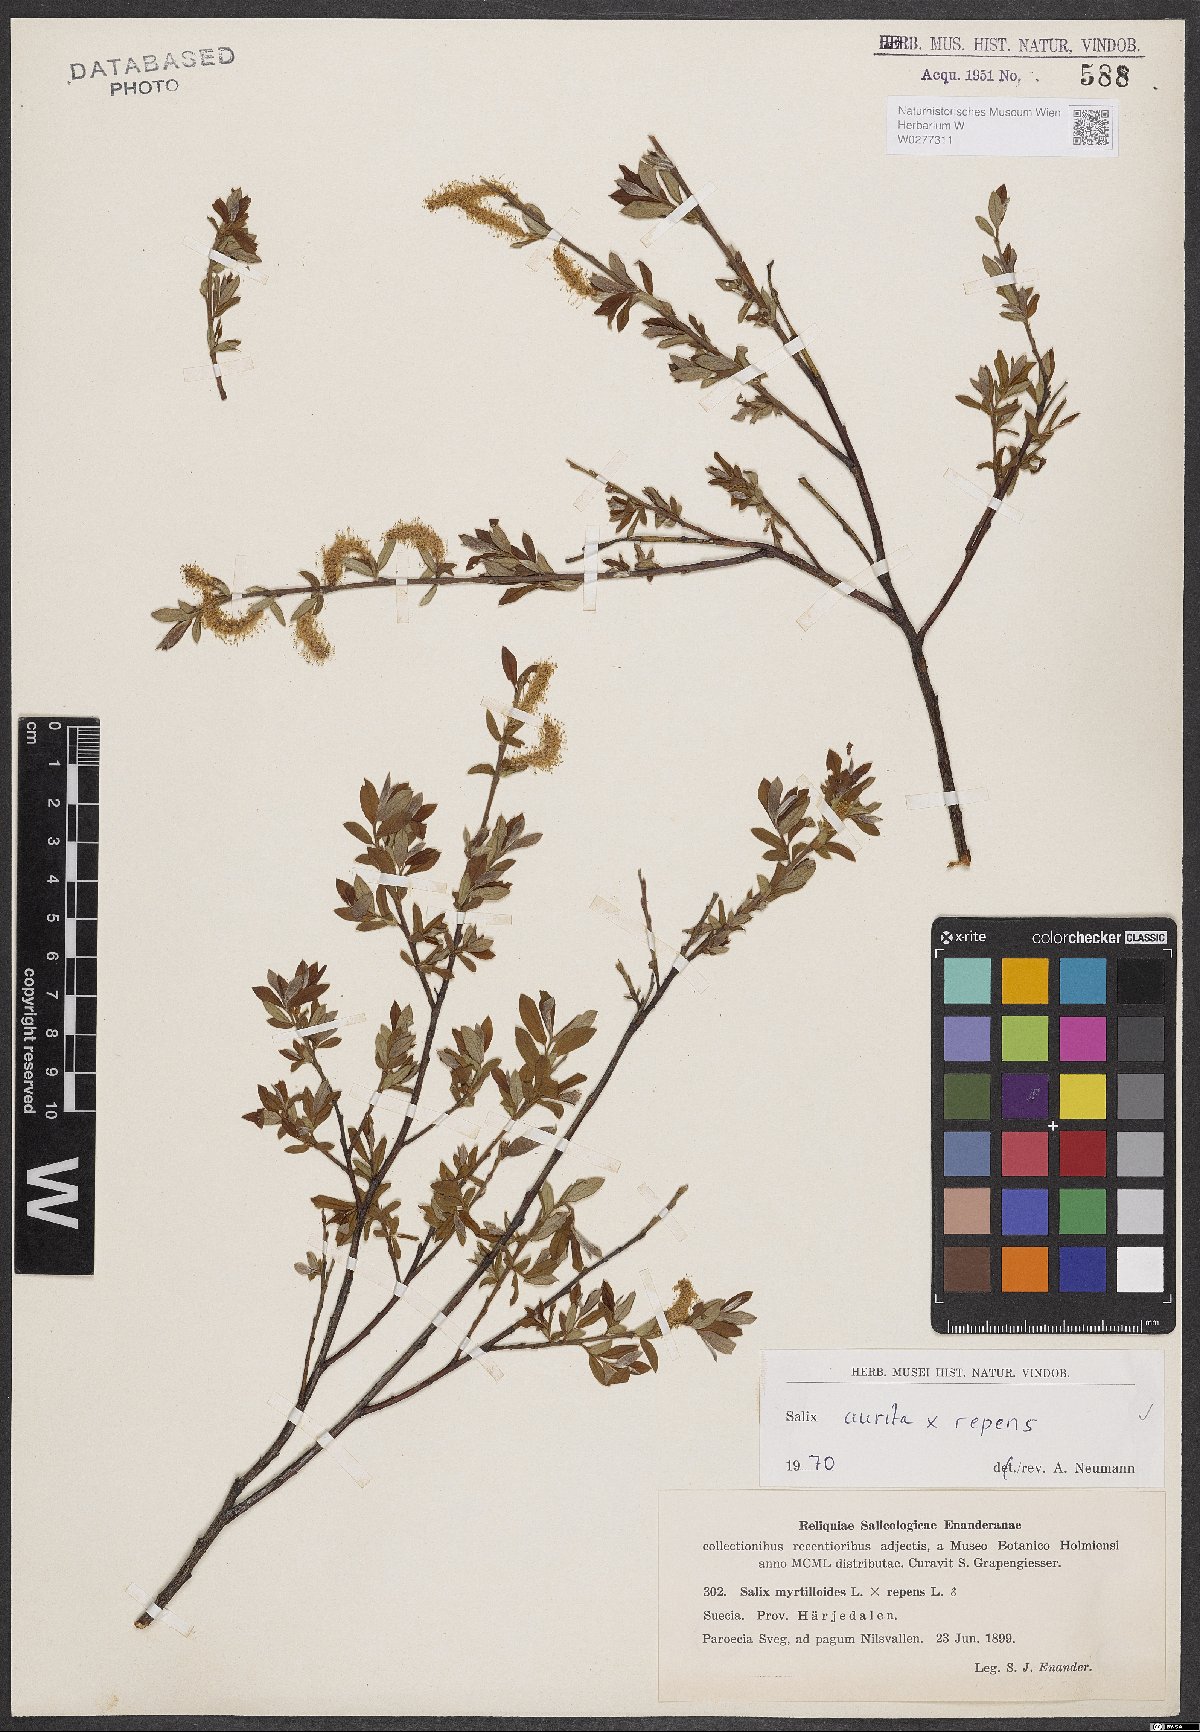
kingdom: Plantae
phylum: Tracheophyta
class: Magnoliopsida
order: Malpighiales
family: Salicaceae
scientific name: Salicaceae
